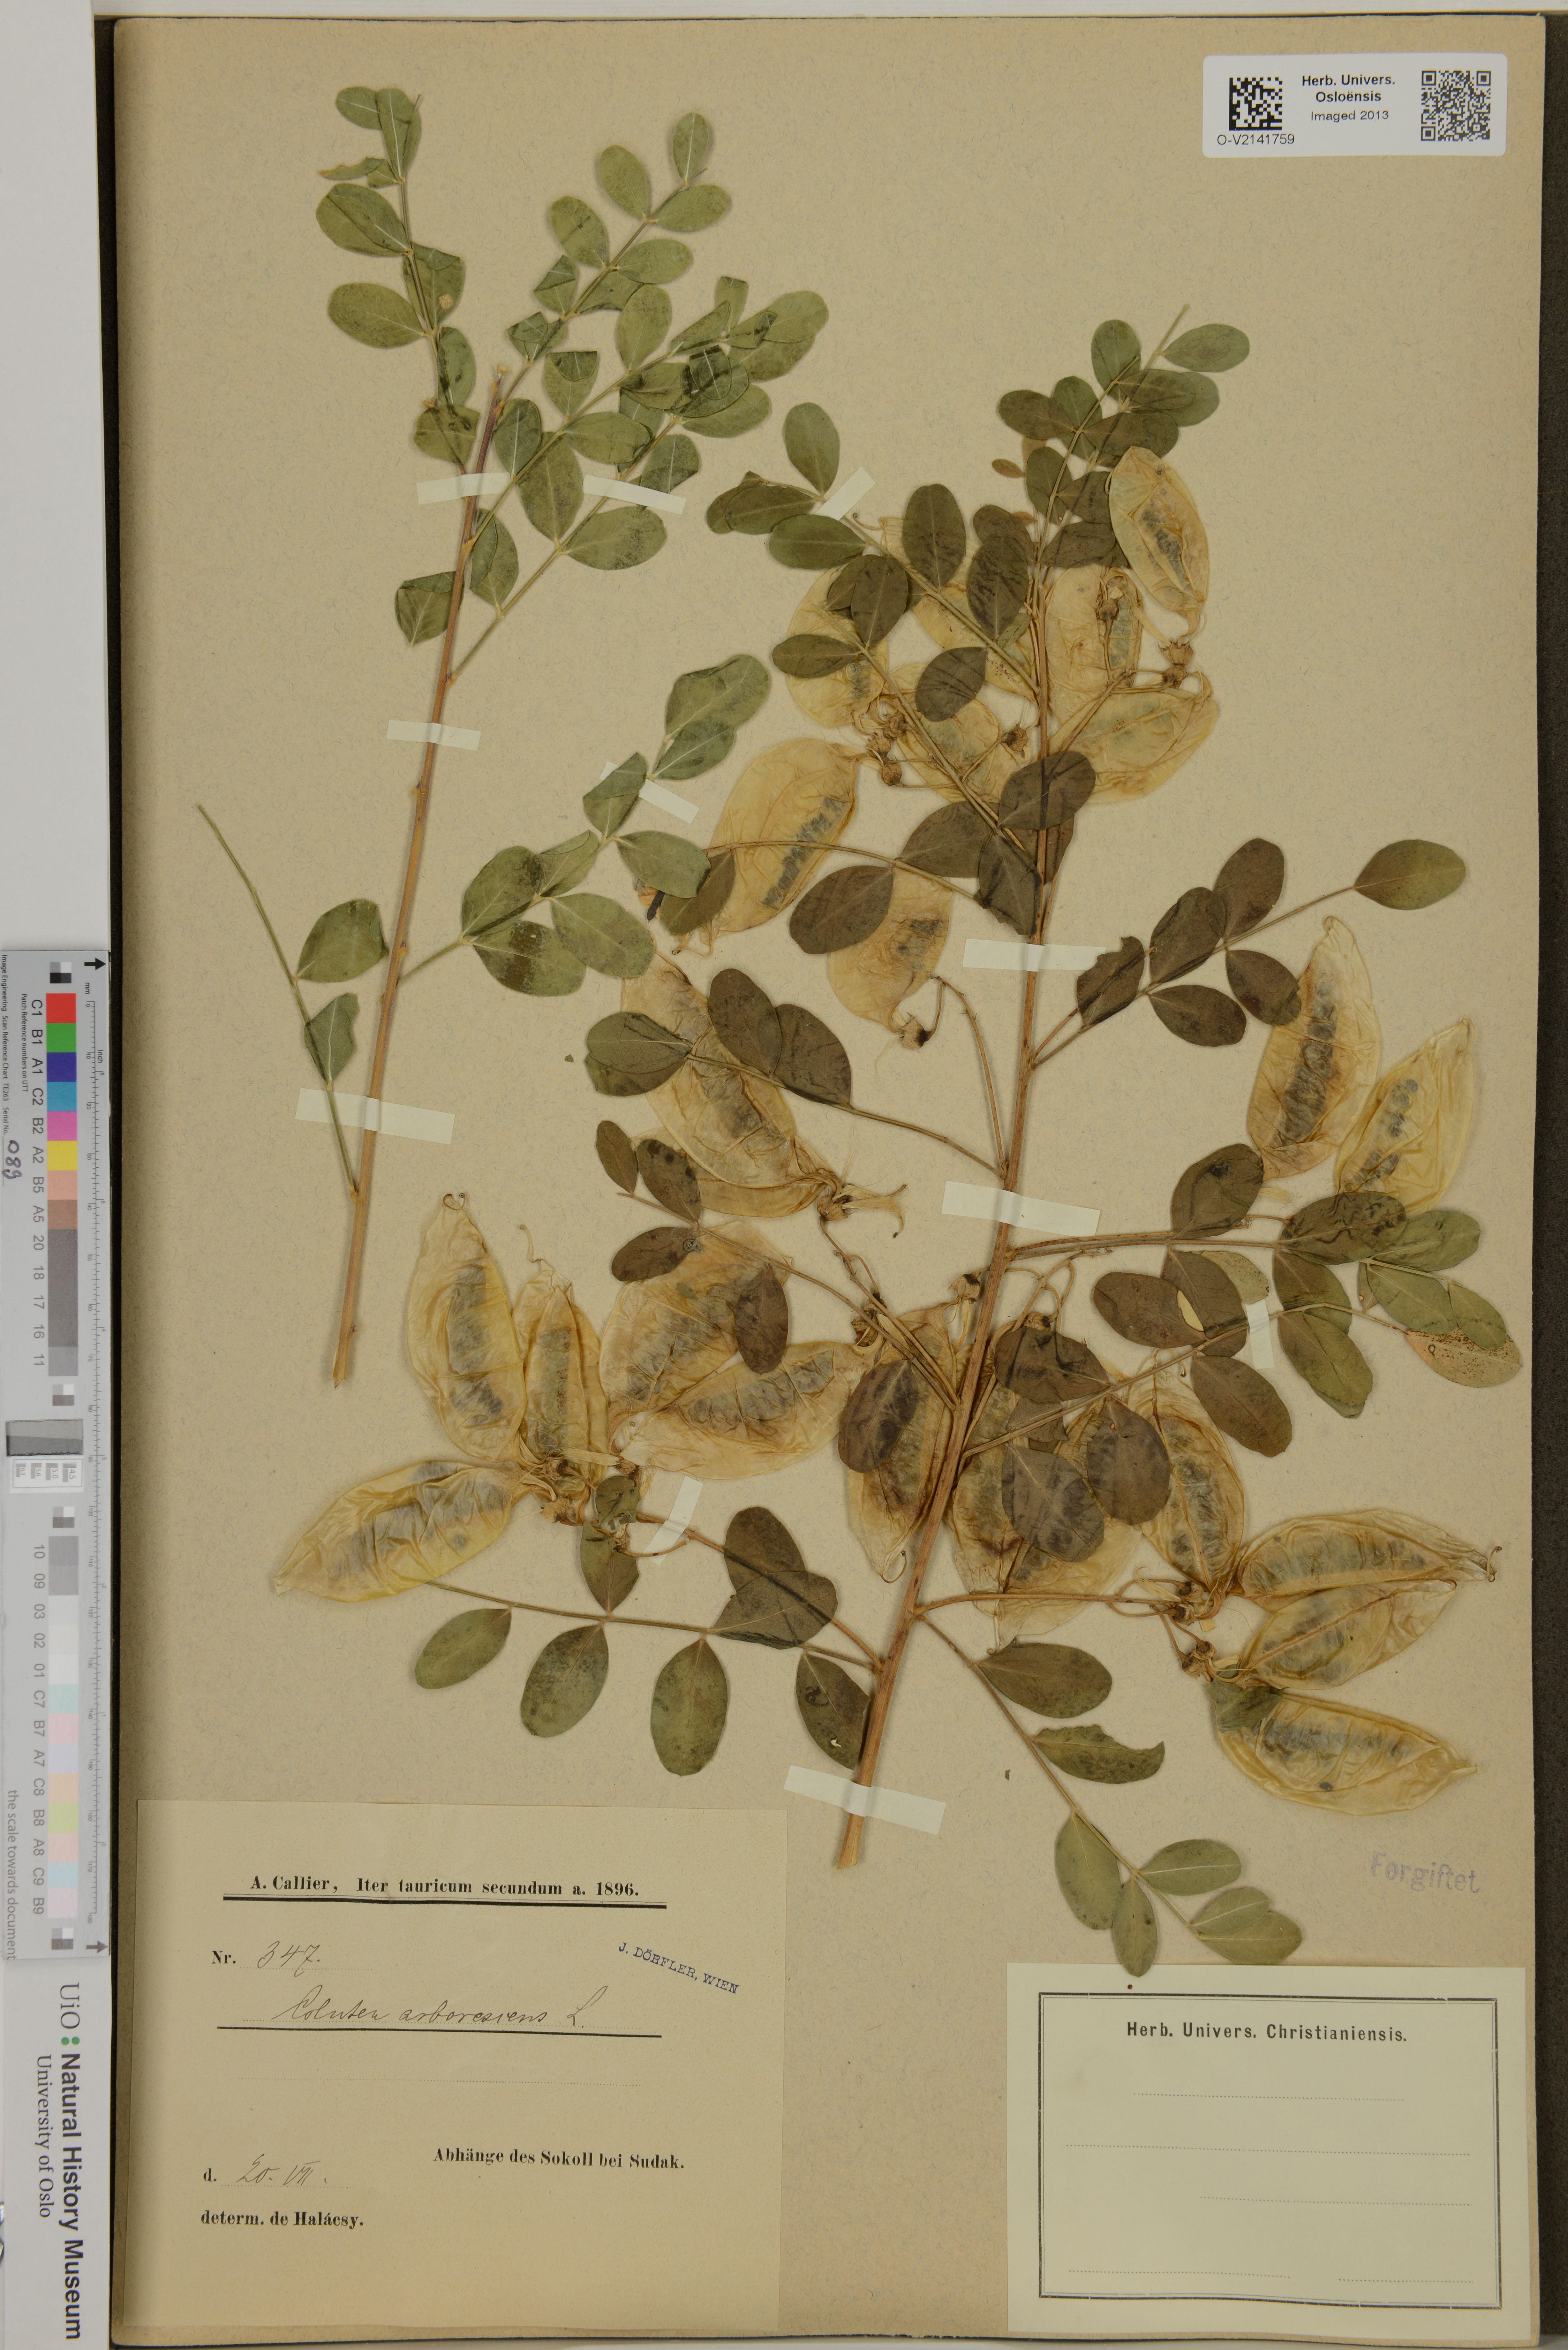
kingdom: Plantae
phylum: Tracheophyta
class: Magnoliopsida
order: Fabales
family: Fabaceae
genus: Colutea
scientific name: Colutea arborescens
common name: Bladder-senna
